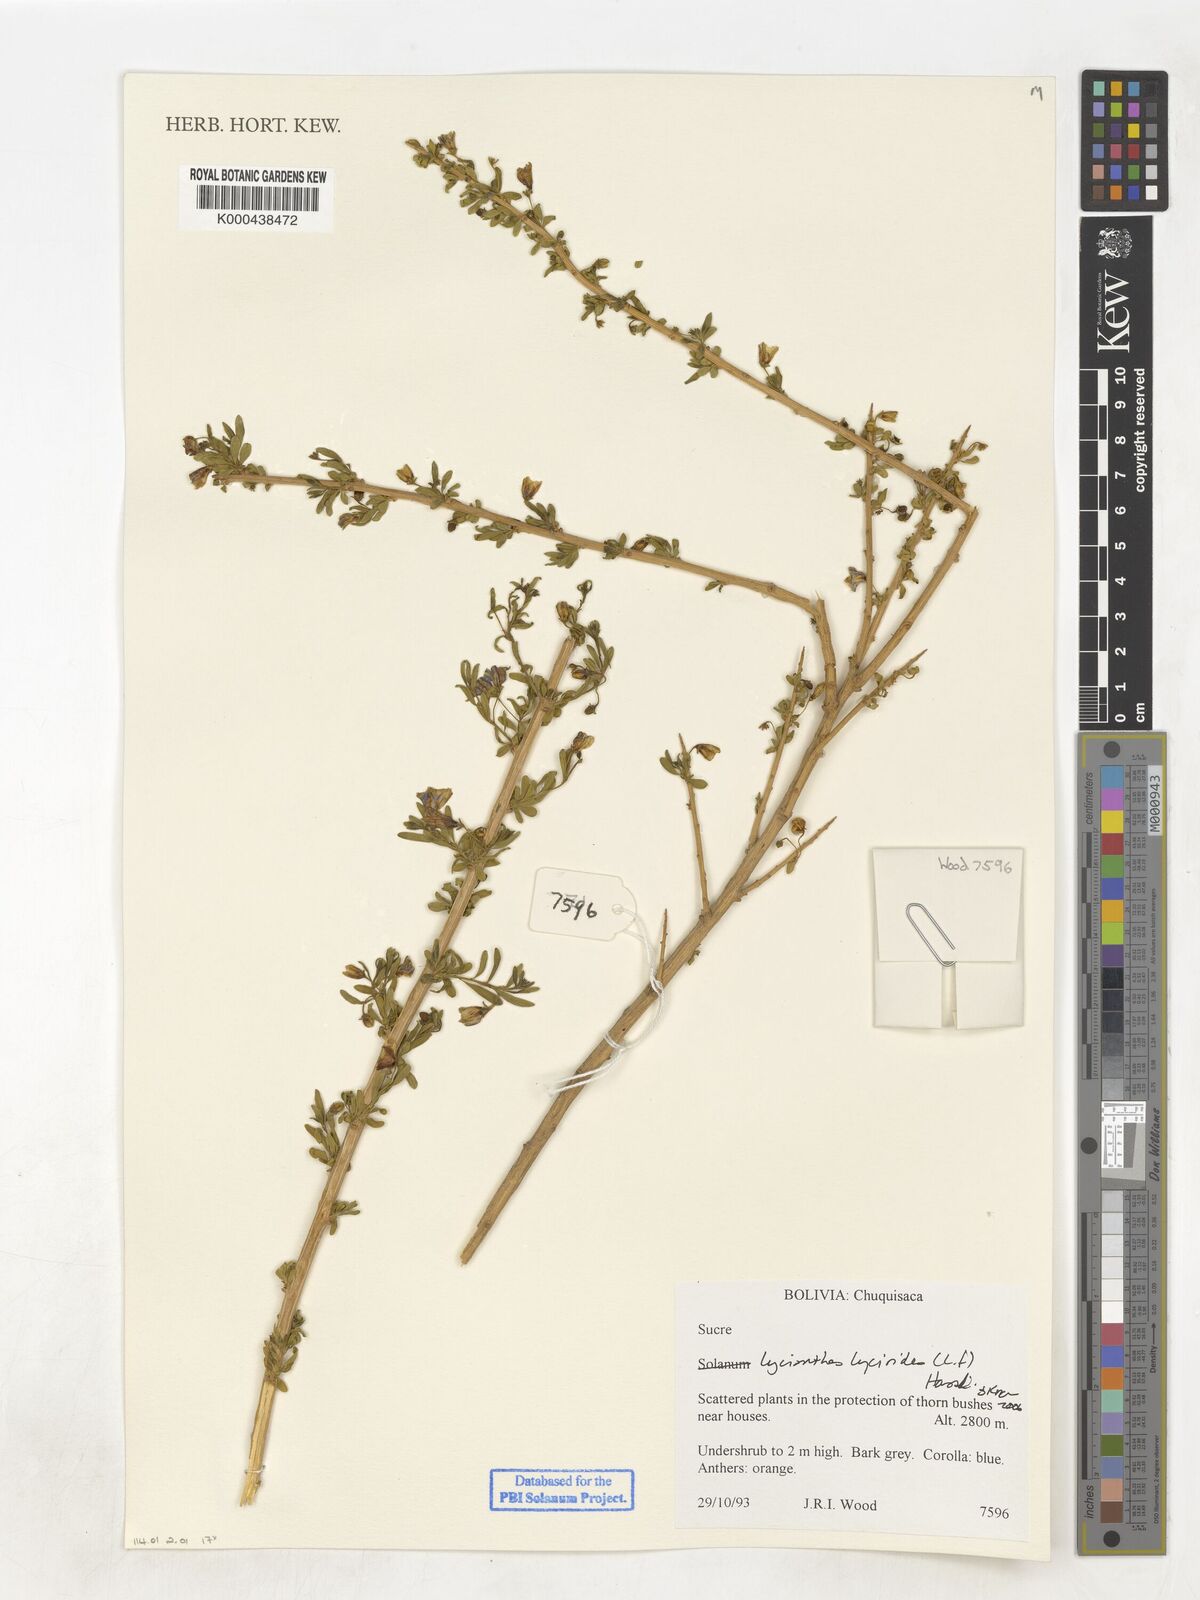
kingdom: Plantae
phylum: Tracheophyta
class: Magnoliopsida
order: Solanales
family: Solanaceae
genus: Lycianthes
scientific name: Lycianthes lycioides
